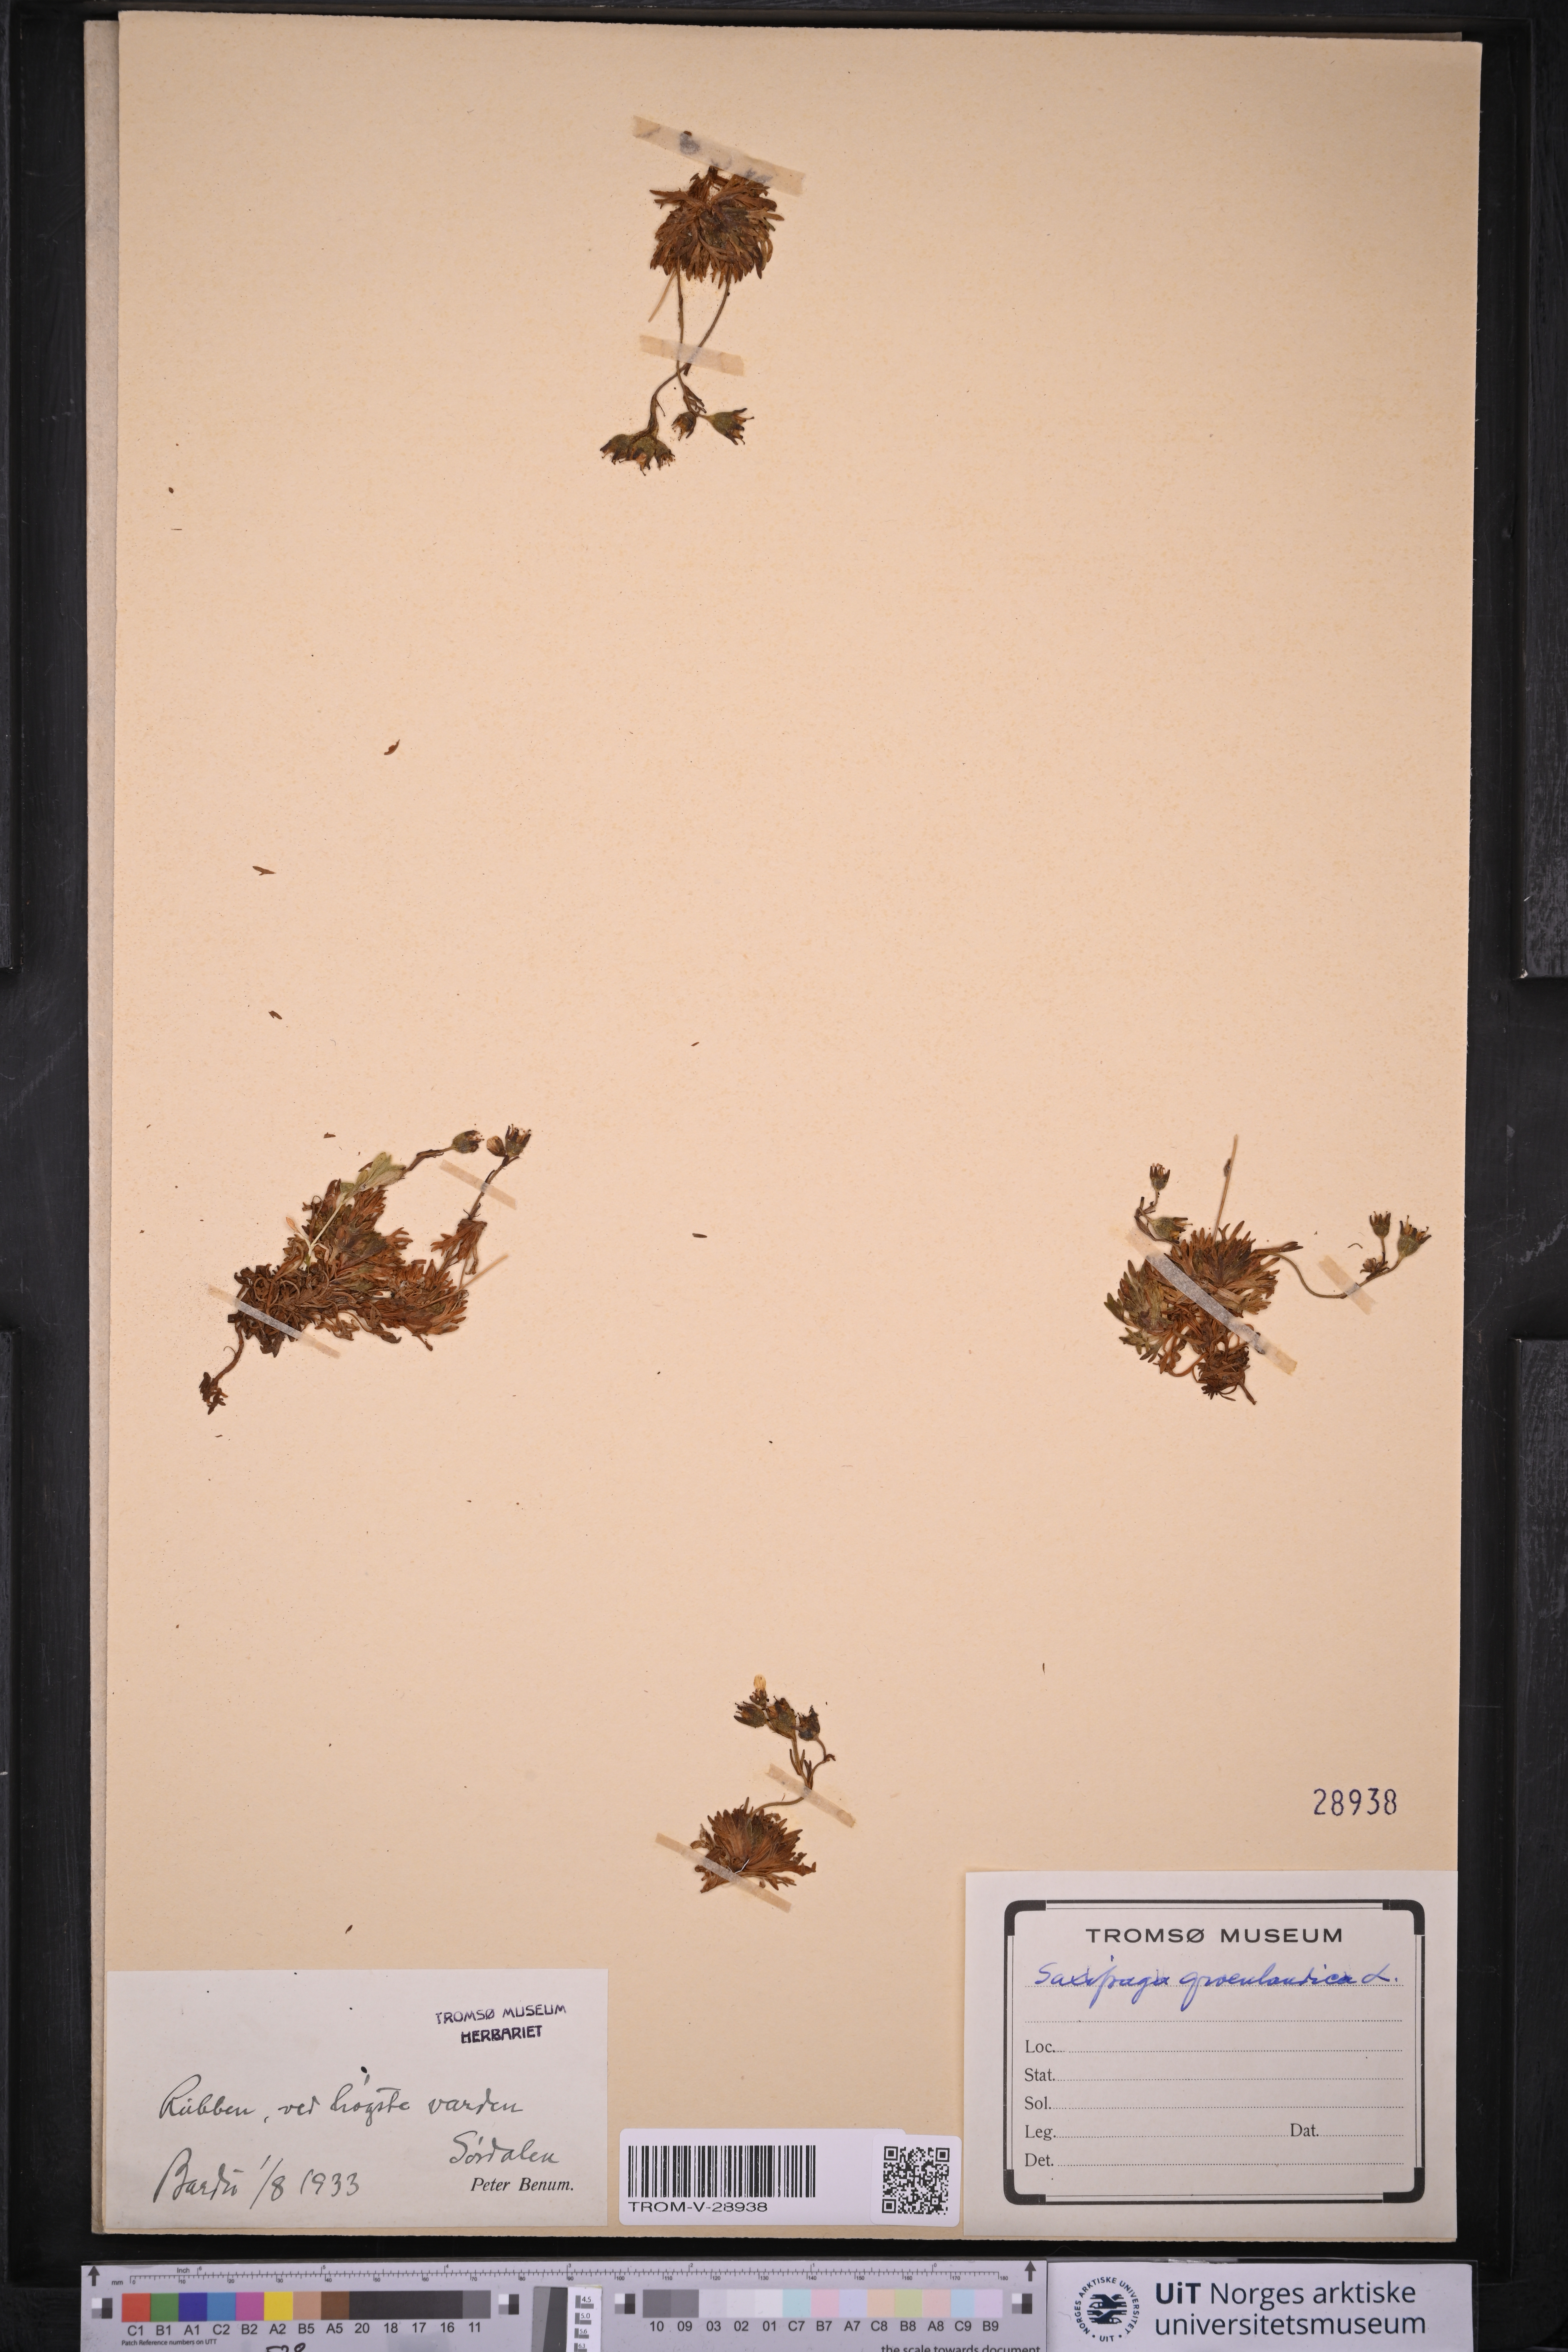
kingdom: Plantae
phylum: Tracheophyta
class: Magnoliopsida
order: Saxifragales
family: Saxifragaceae
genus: Saxifraga
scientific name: Saxifraga cespitosa
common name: Tufted saxifrage
